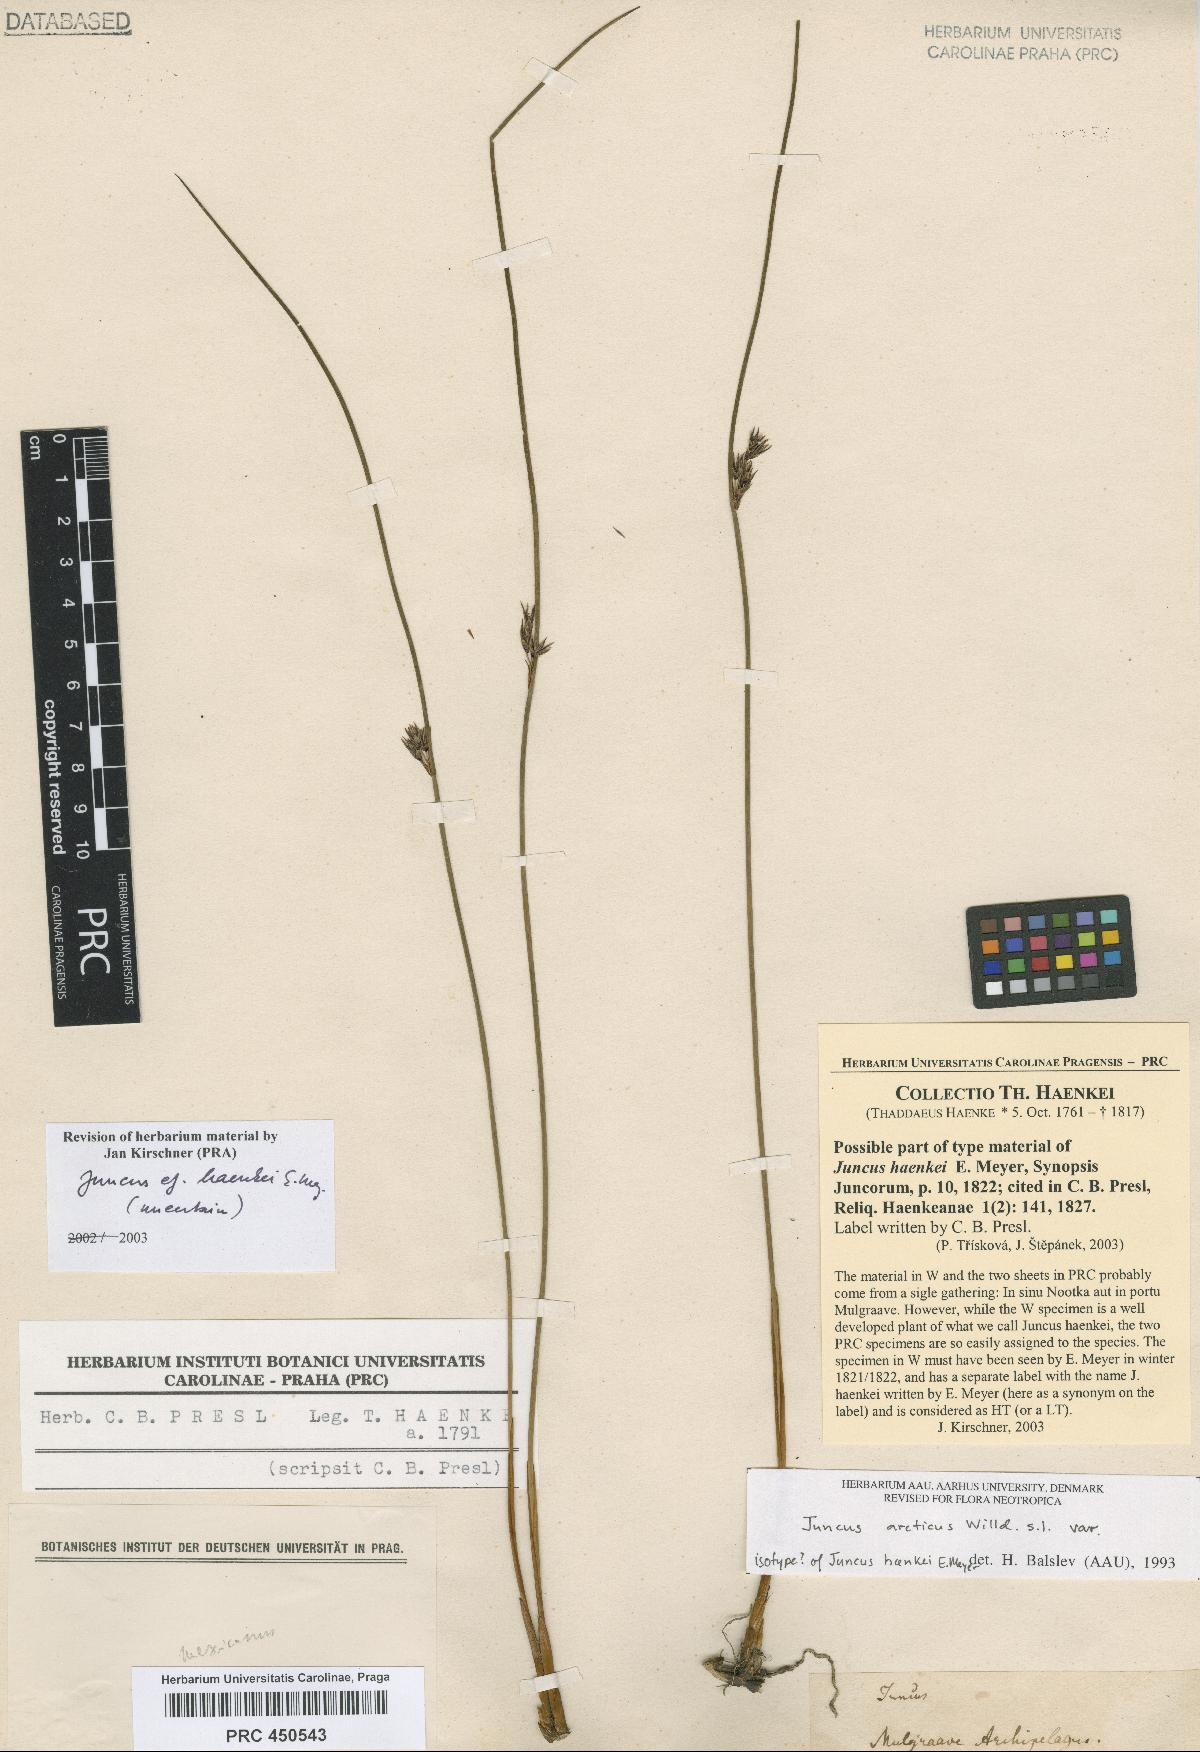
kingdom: Plantae
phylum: Tracheophyta
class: Liliopsida
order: Poales
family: Juncaceae
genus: Juncus
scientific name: Juncus arcticus
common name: Arctic rush
